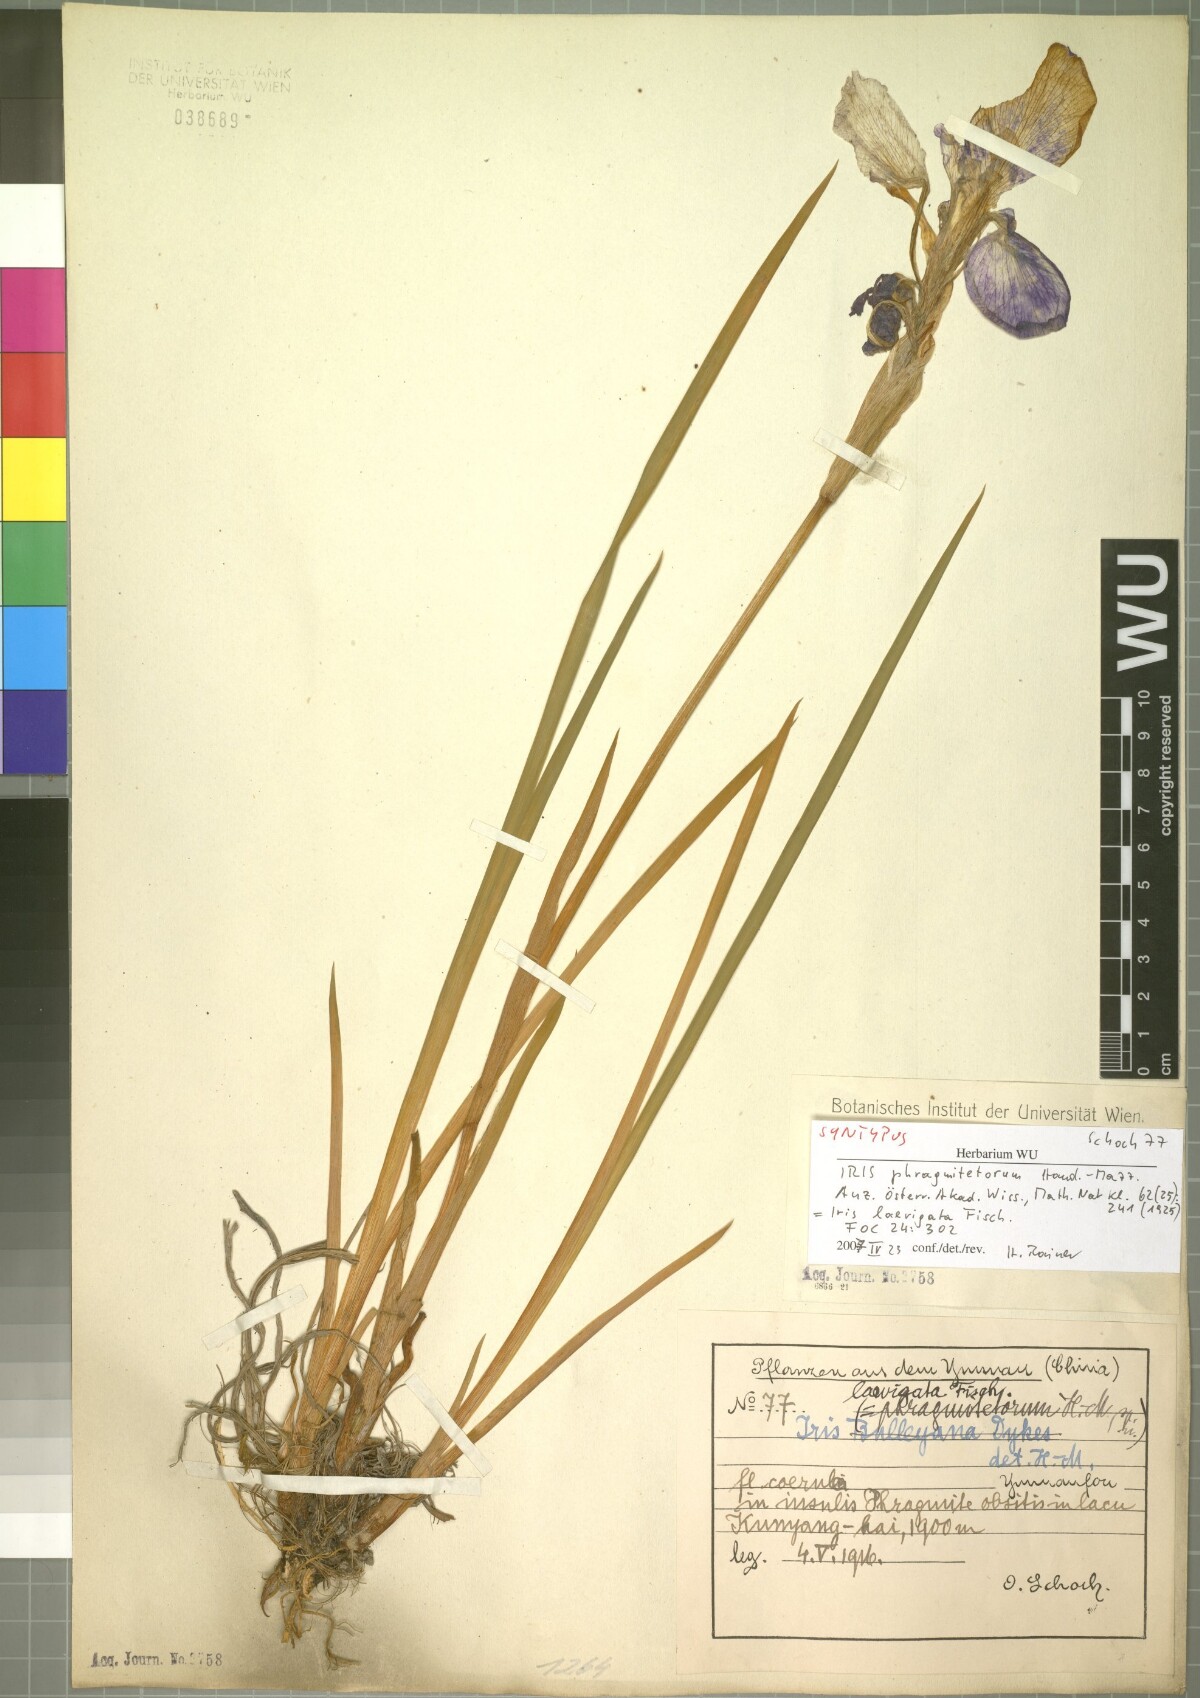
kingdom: Plantae
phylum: Tracheophyta
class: Liliopsida
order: Asparagales
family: Iridaceae
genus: Iris
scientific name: Iris laevigata
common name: Japanese iris
